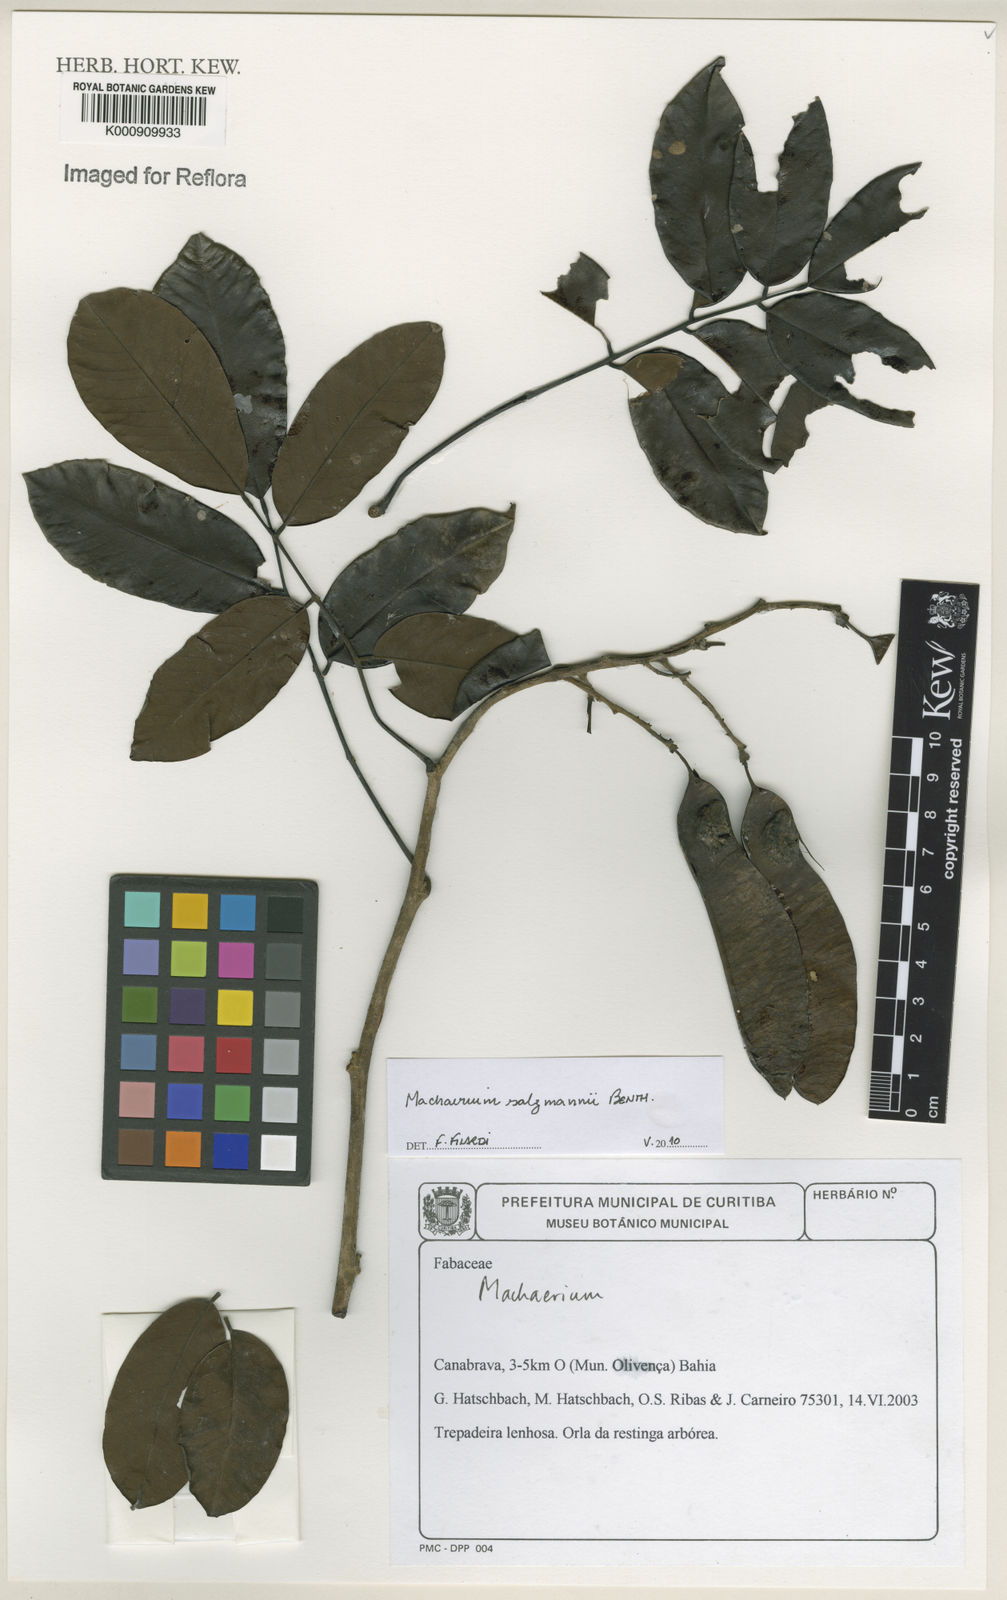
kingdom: Plantae
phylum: Tracheophyta
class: Magnoliopsida
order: Fabales
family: Fabaceae
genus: Machaerium
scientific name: Machaerium salzmannii
